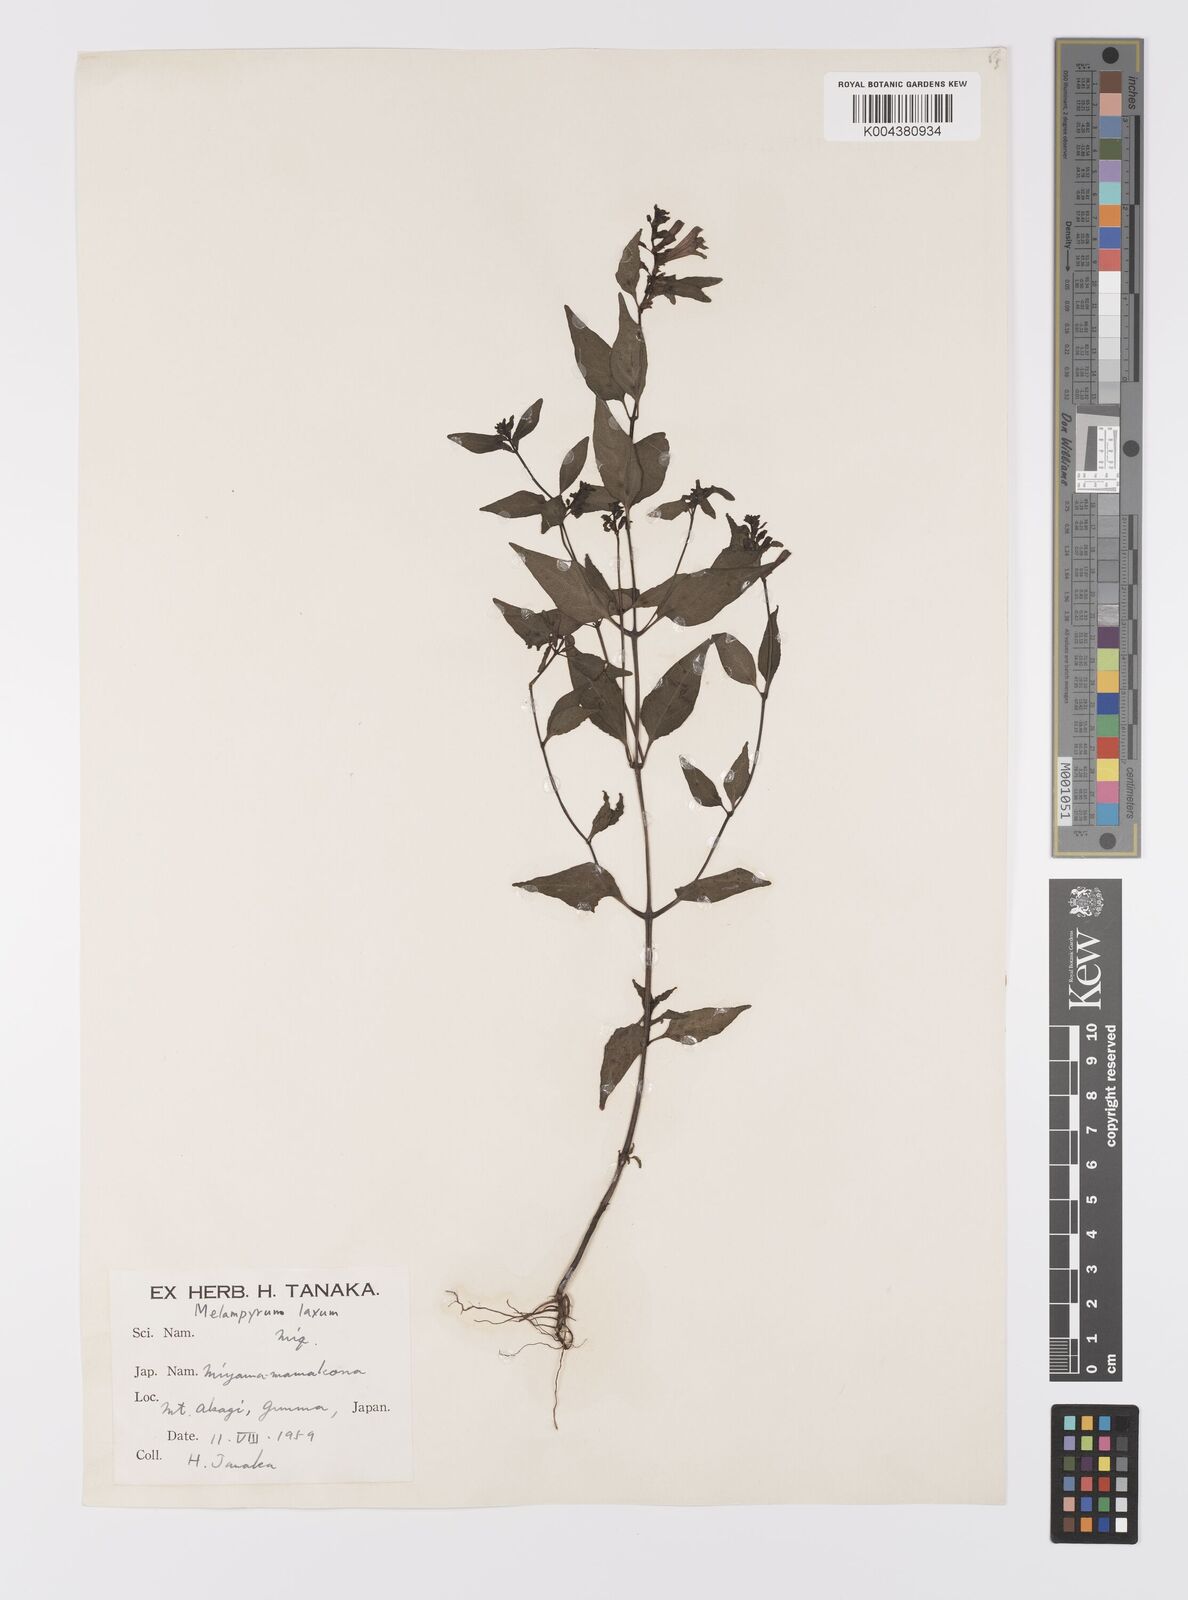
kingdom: Plantae
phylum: Tracheophyta
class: Magnoliopsida
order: Lamiales
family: Orobanchaceae
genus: Melampyrum
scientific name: Melampyrum laxum
